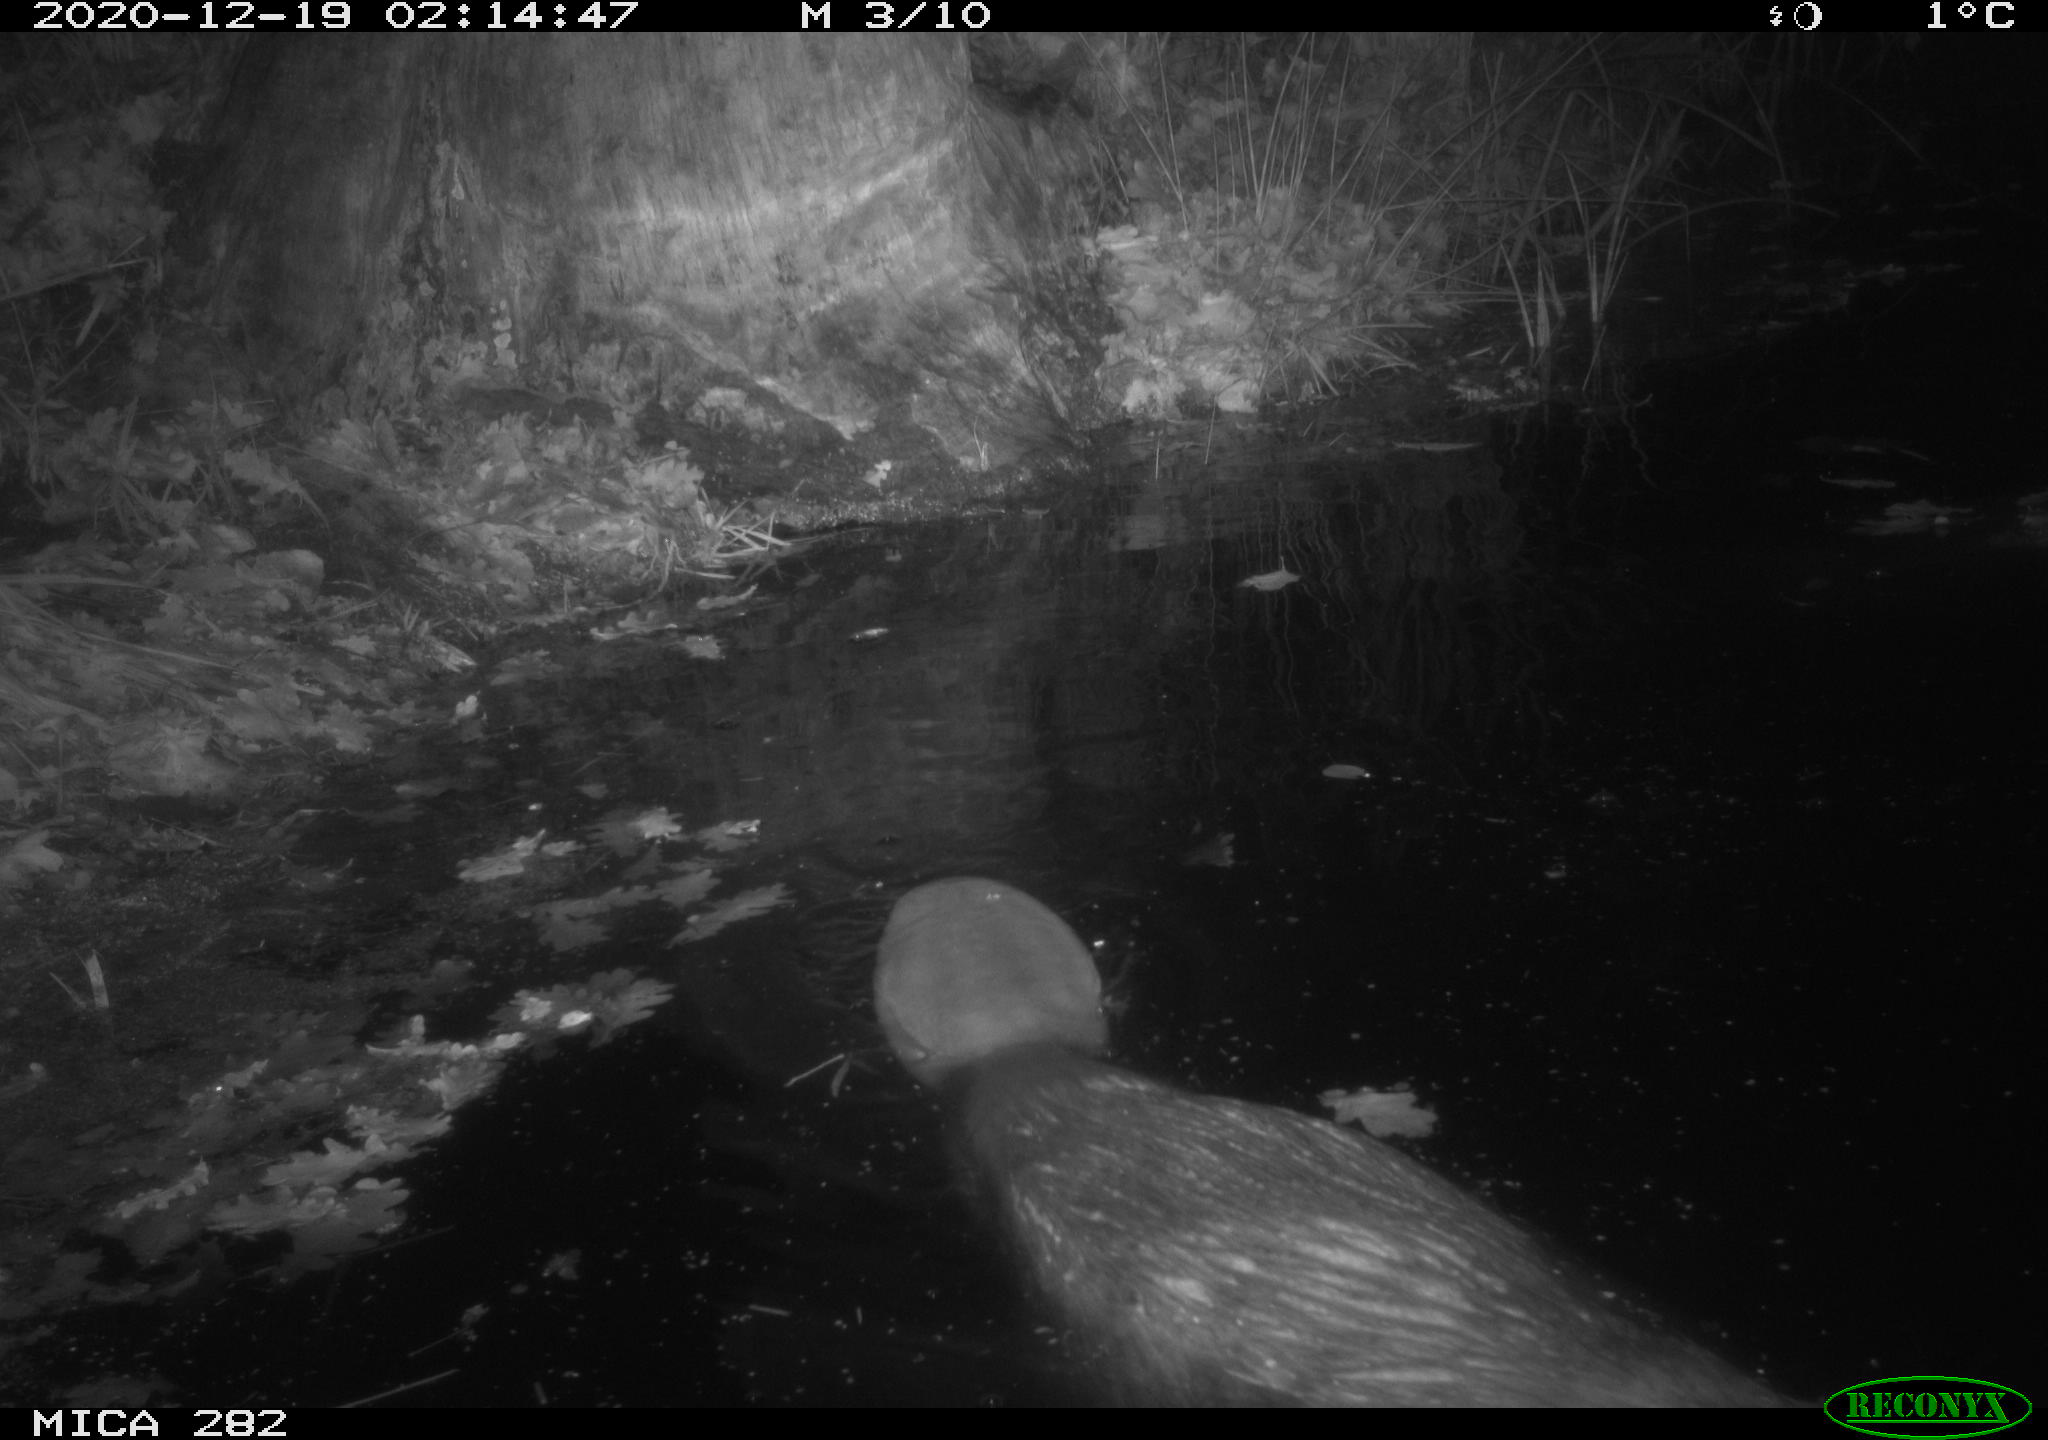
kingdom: Animalia
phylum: Chordata
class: Mammalia
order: Rodentia
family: Castoridae
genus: Castor
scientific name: Castor fiber
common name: Eurasian beaver
